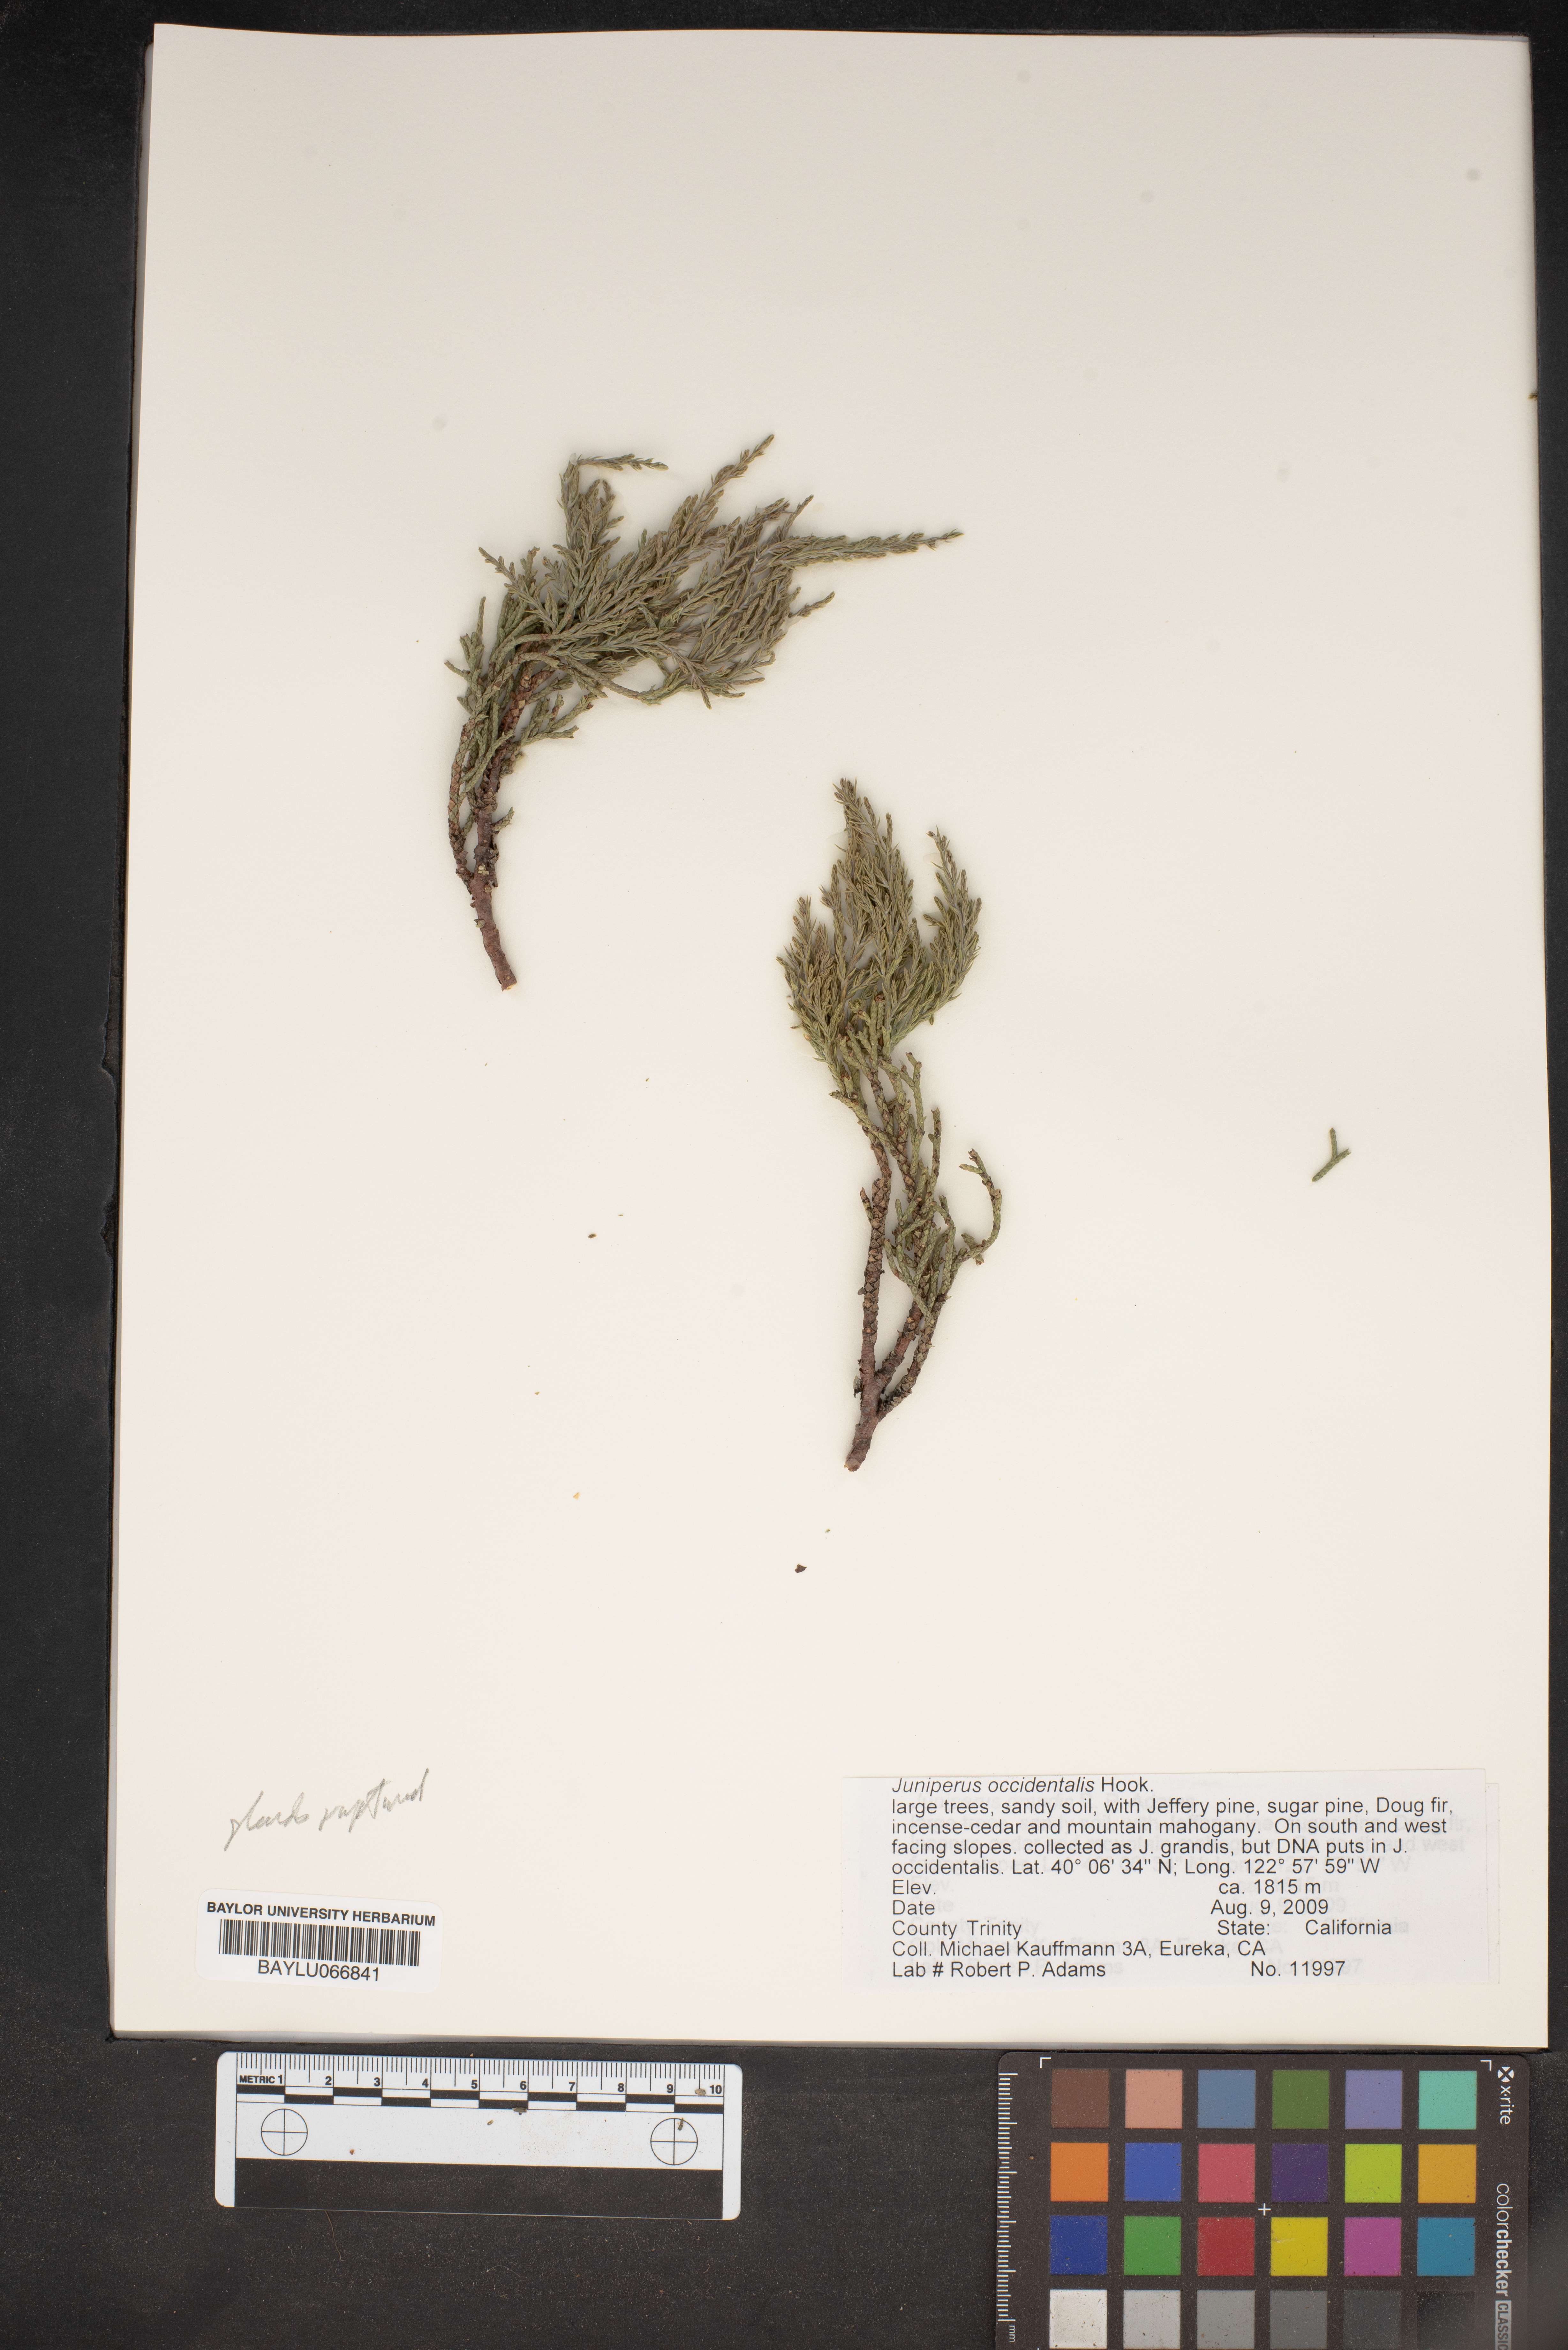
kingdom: Plantae
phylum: Tracheophyta
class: Pinopsida
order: Pinales
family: Cupressaceae
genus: Juniperus
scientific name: Juniperus occidentalis
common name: Western juniper
